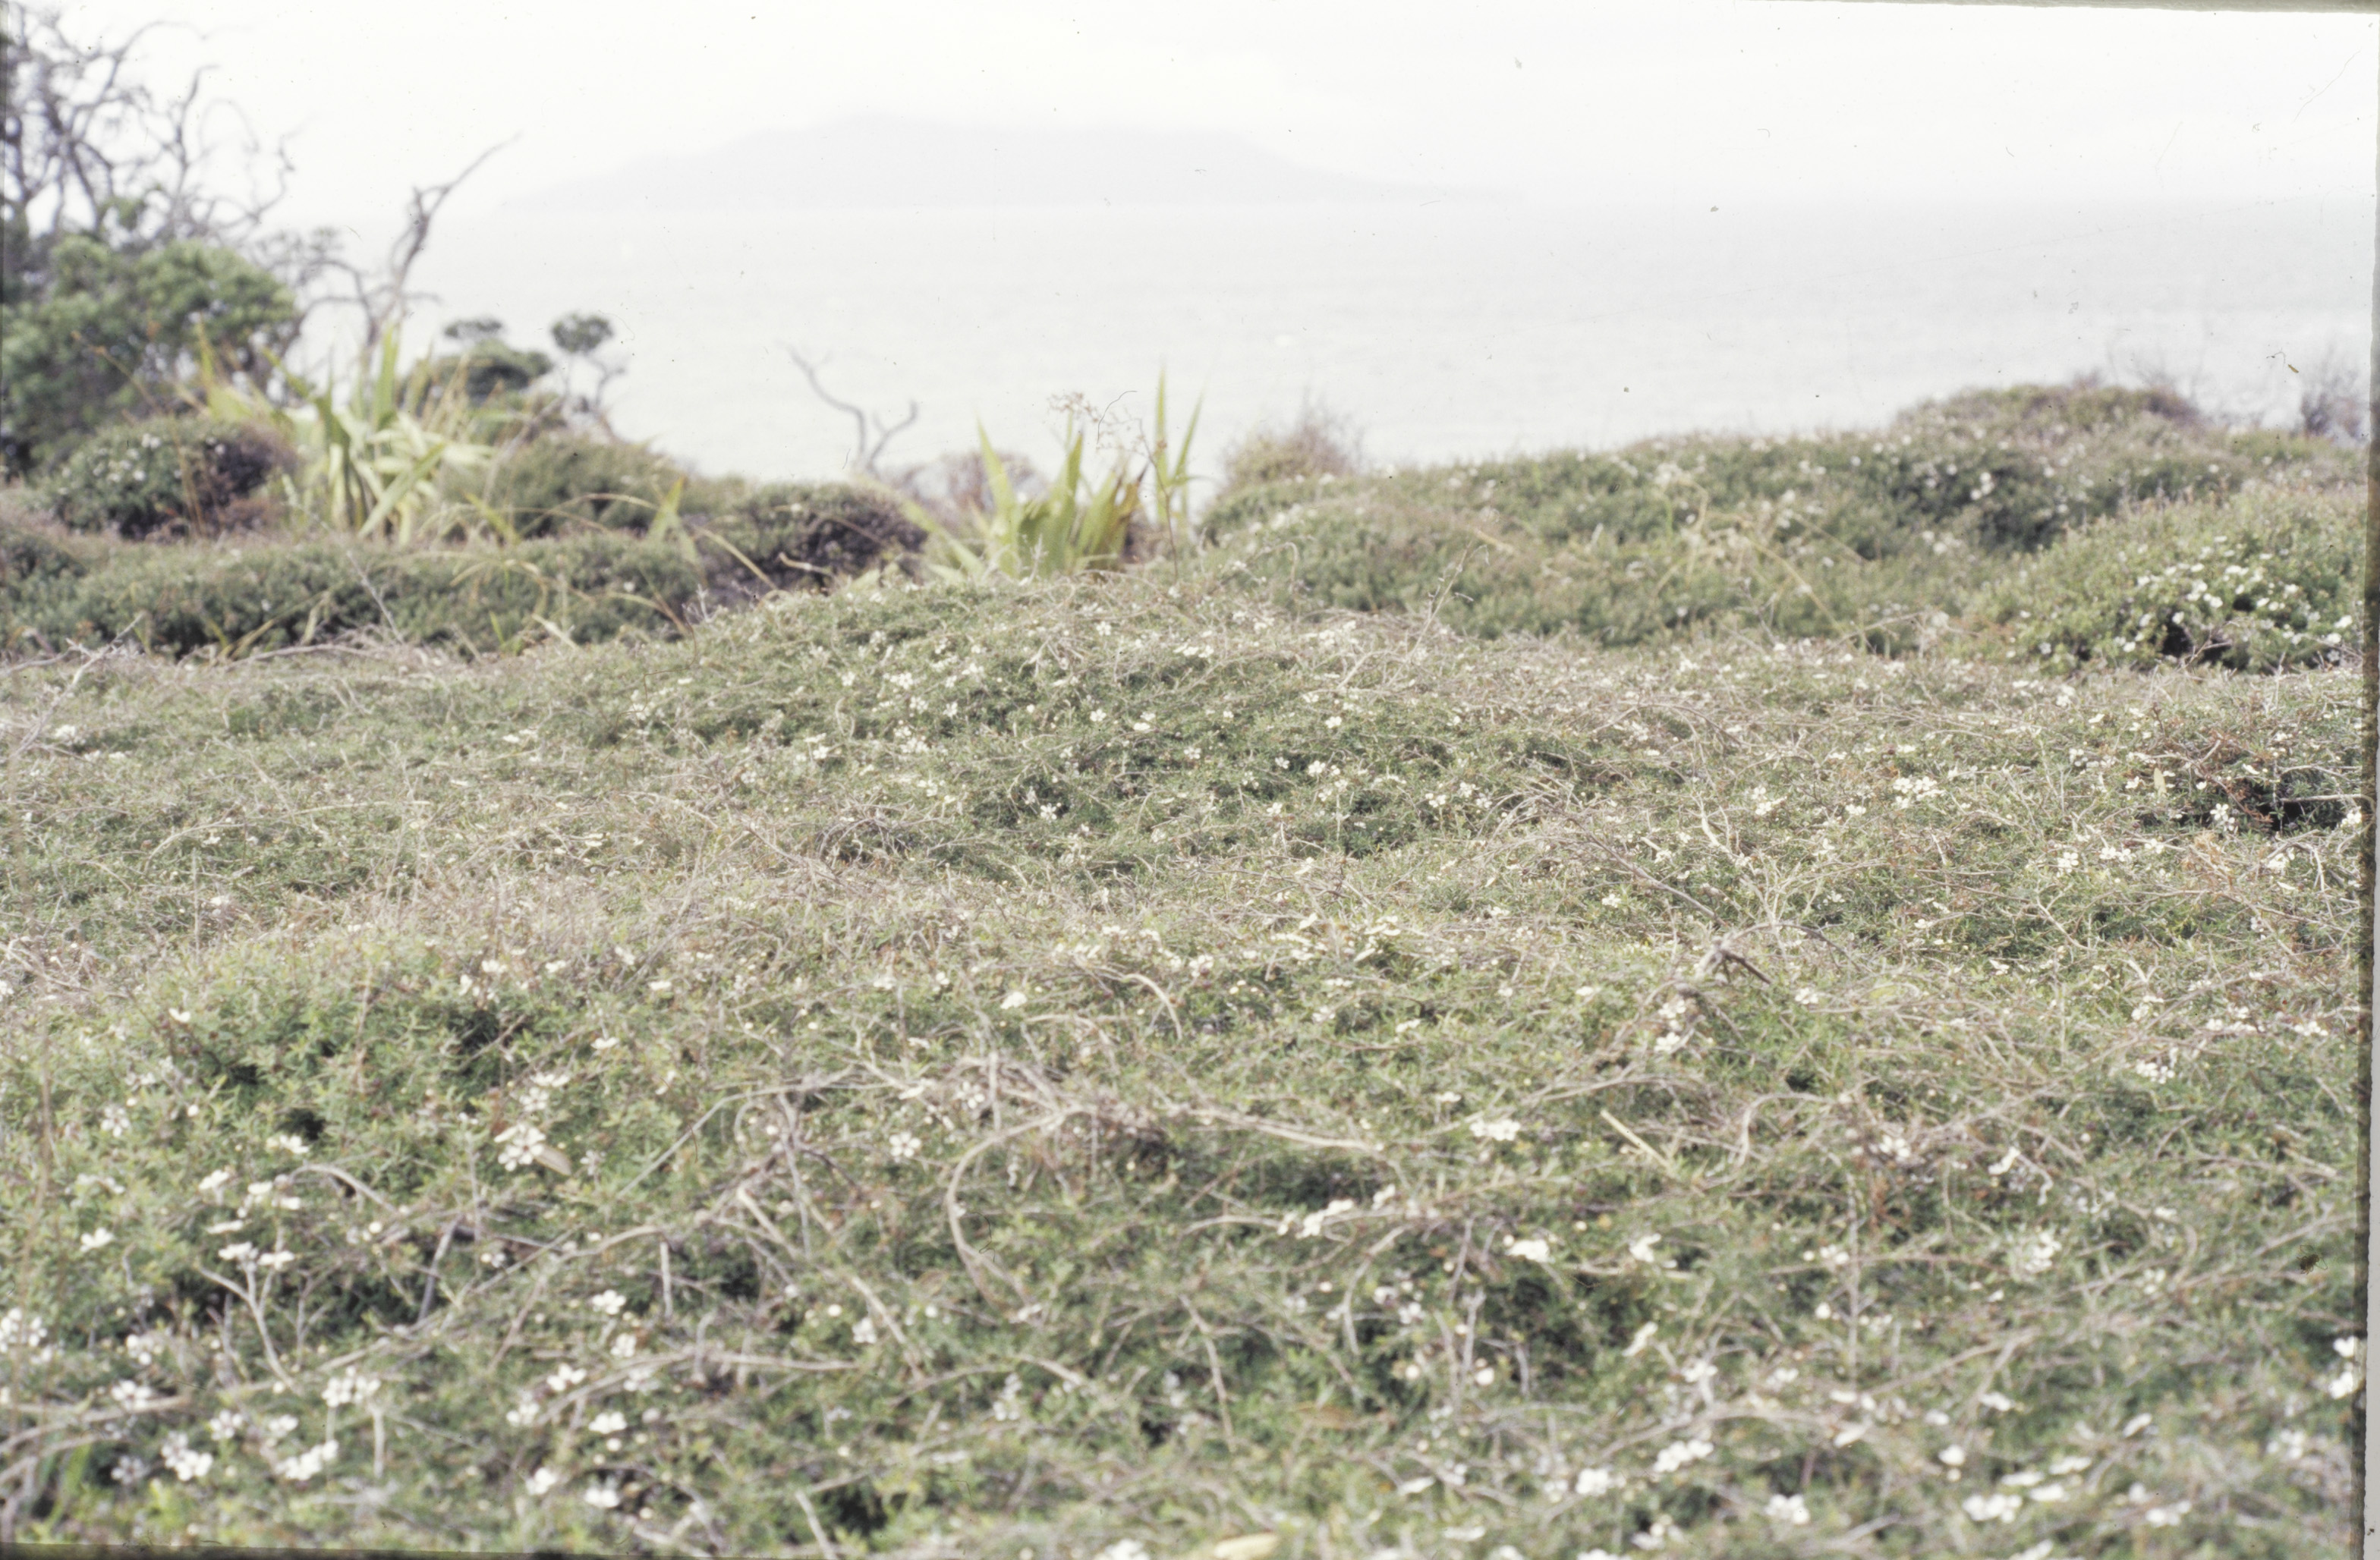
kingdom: Plantae
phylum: Tracheophyta
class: Magnoliopsida
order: Myrtales
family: Myrtaceae
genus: Leptospermum
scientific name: Leptospermum scoparium
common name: Broom tea-tree
